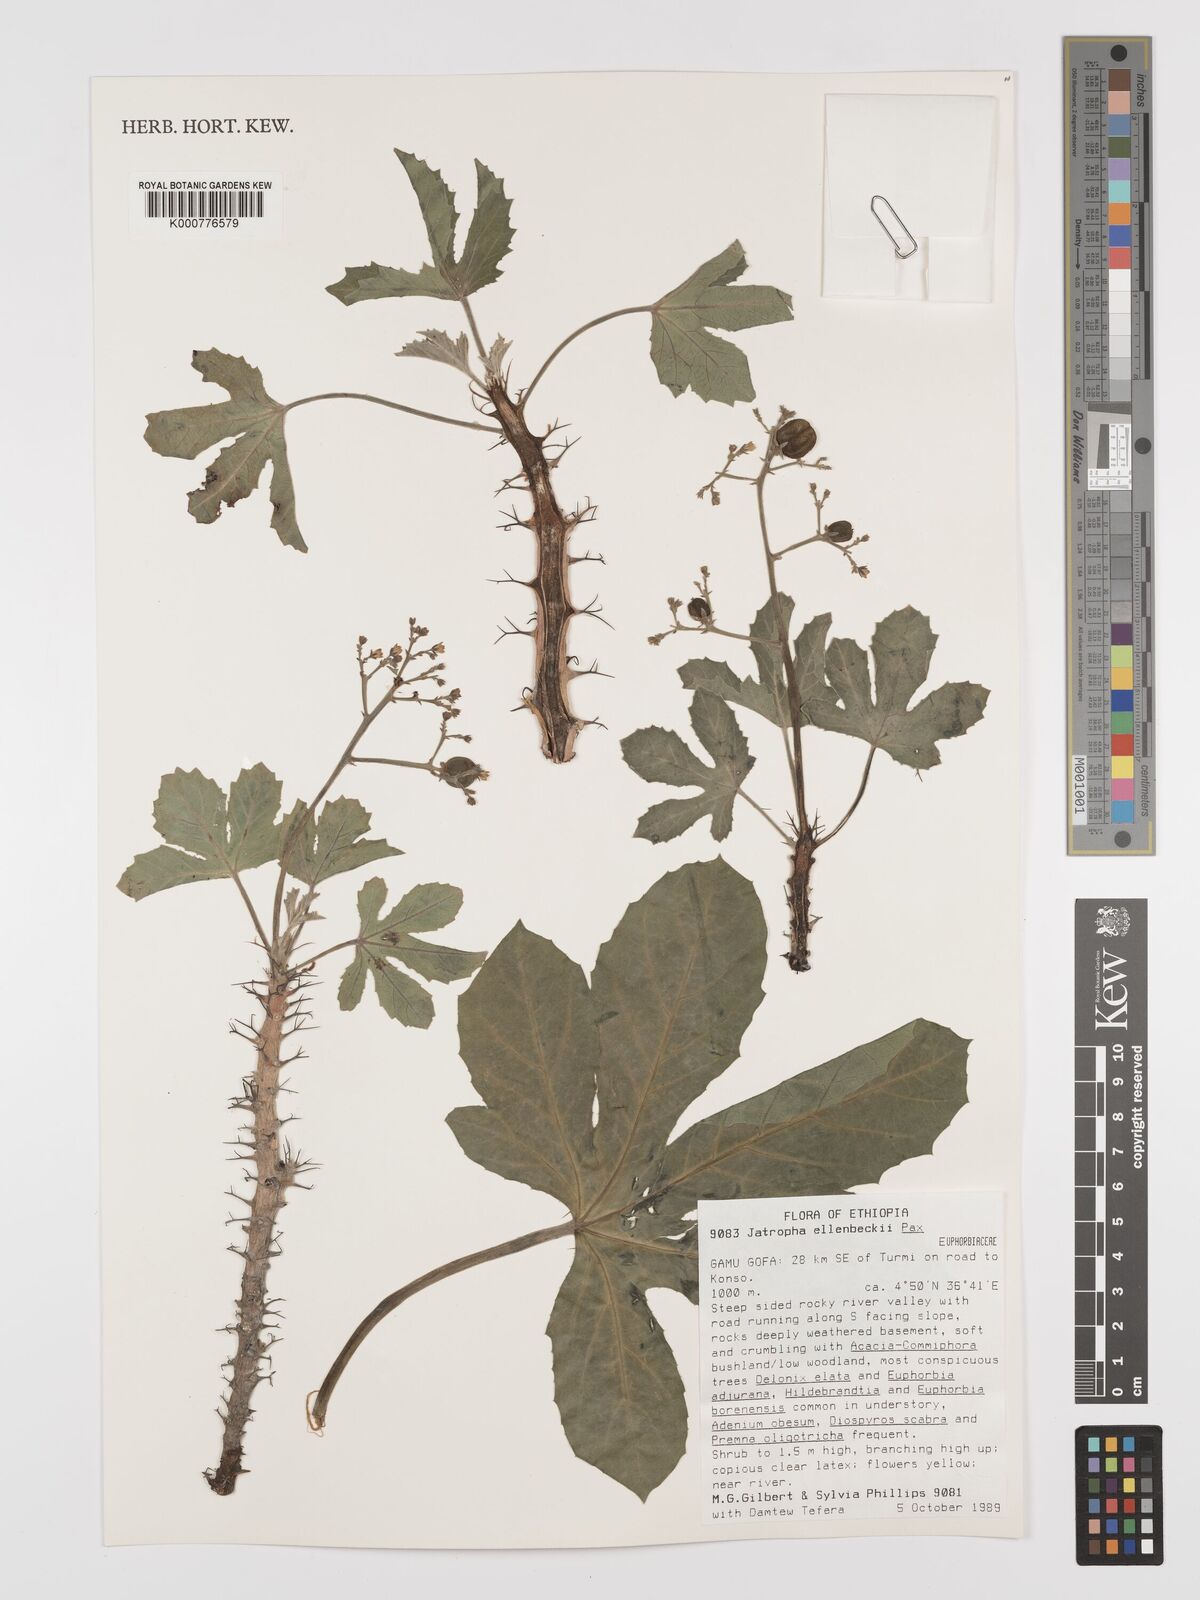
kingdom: Plantae
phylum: Tracheophyta
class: Magnoliopsida
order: Malpighiales
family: Euphorbiaceae
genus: Jatropha
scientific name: Jatropha ellenbeckii
